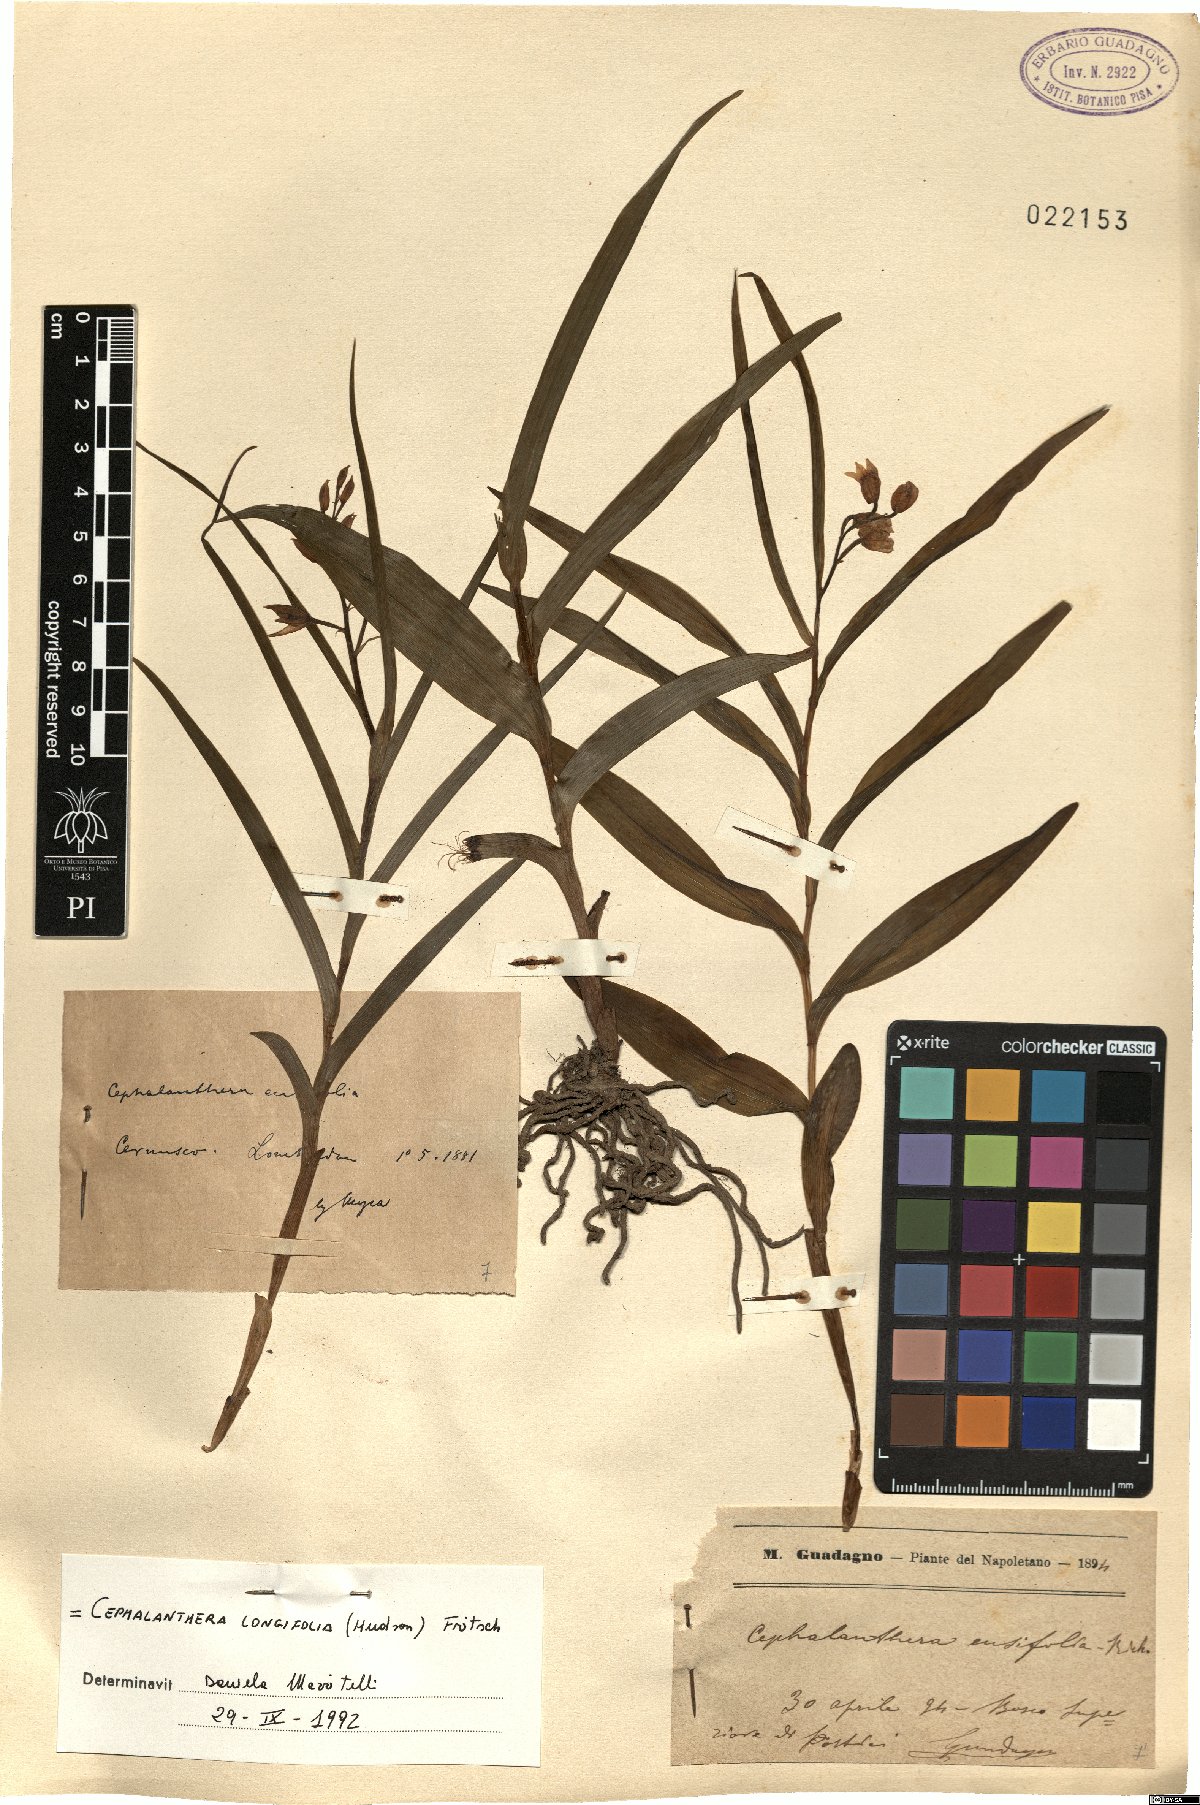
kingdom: Plantae
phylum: Tracheophyta
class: Liliopsida
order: Asparagales
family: Orchidaceae
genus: Cephalanthera
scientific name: Cephalanthera longifolia
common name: Narrow-leaved helleborine
